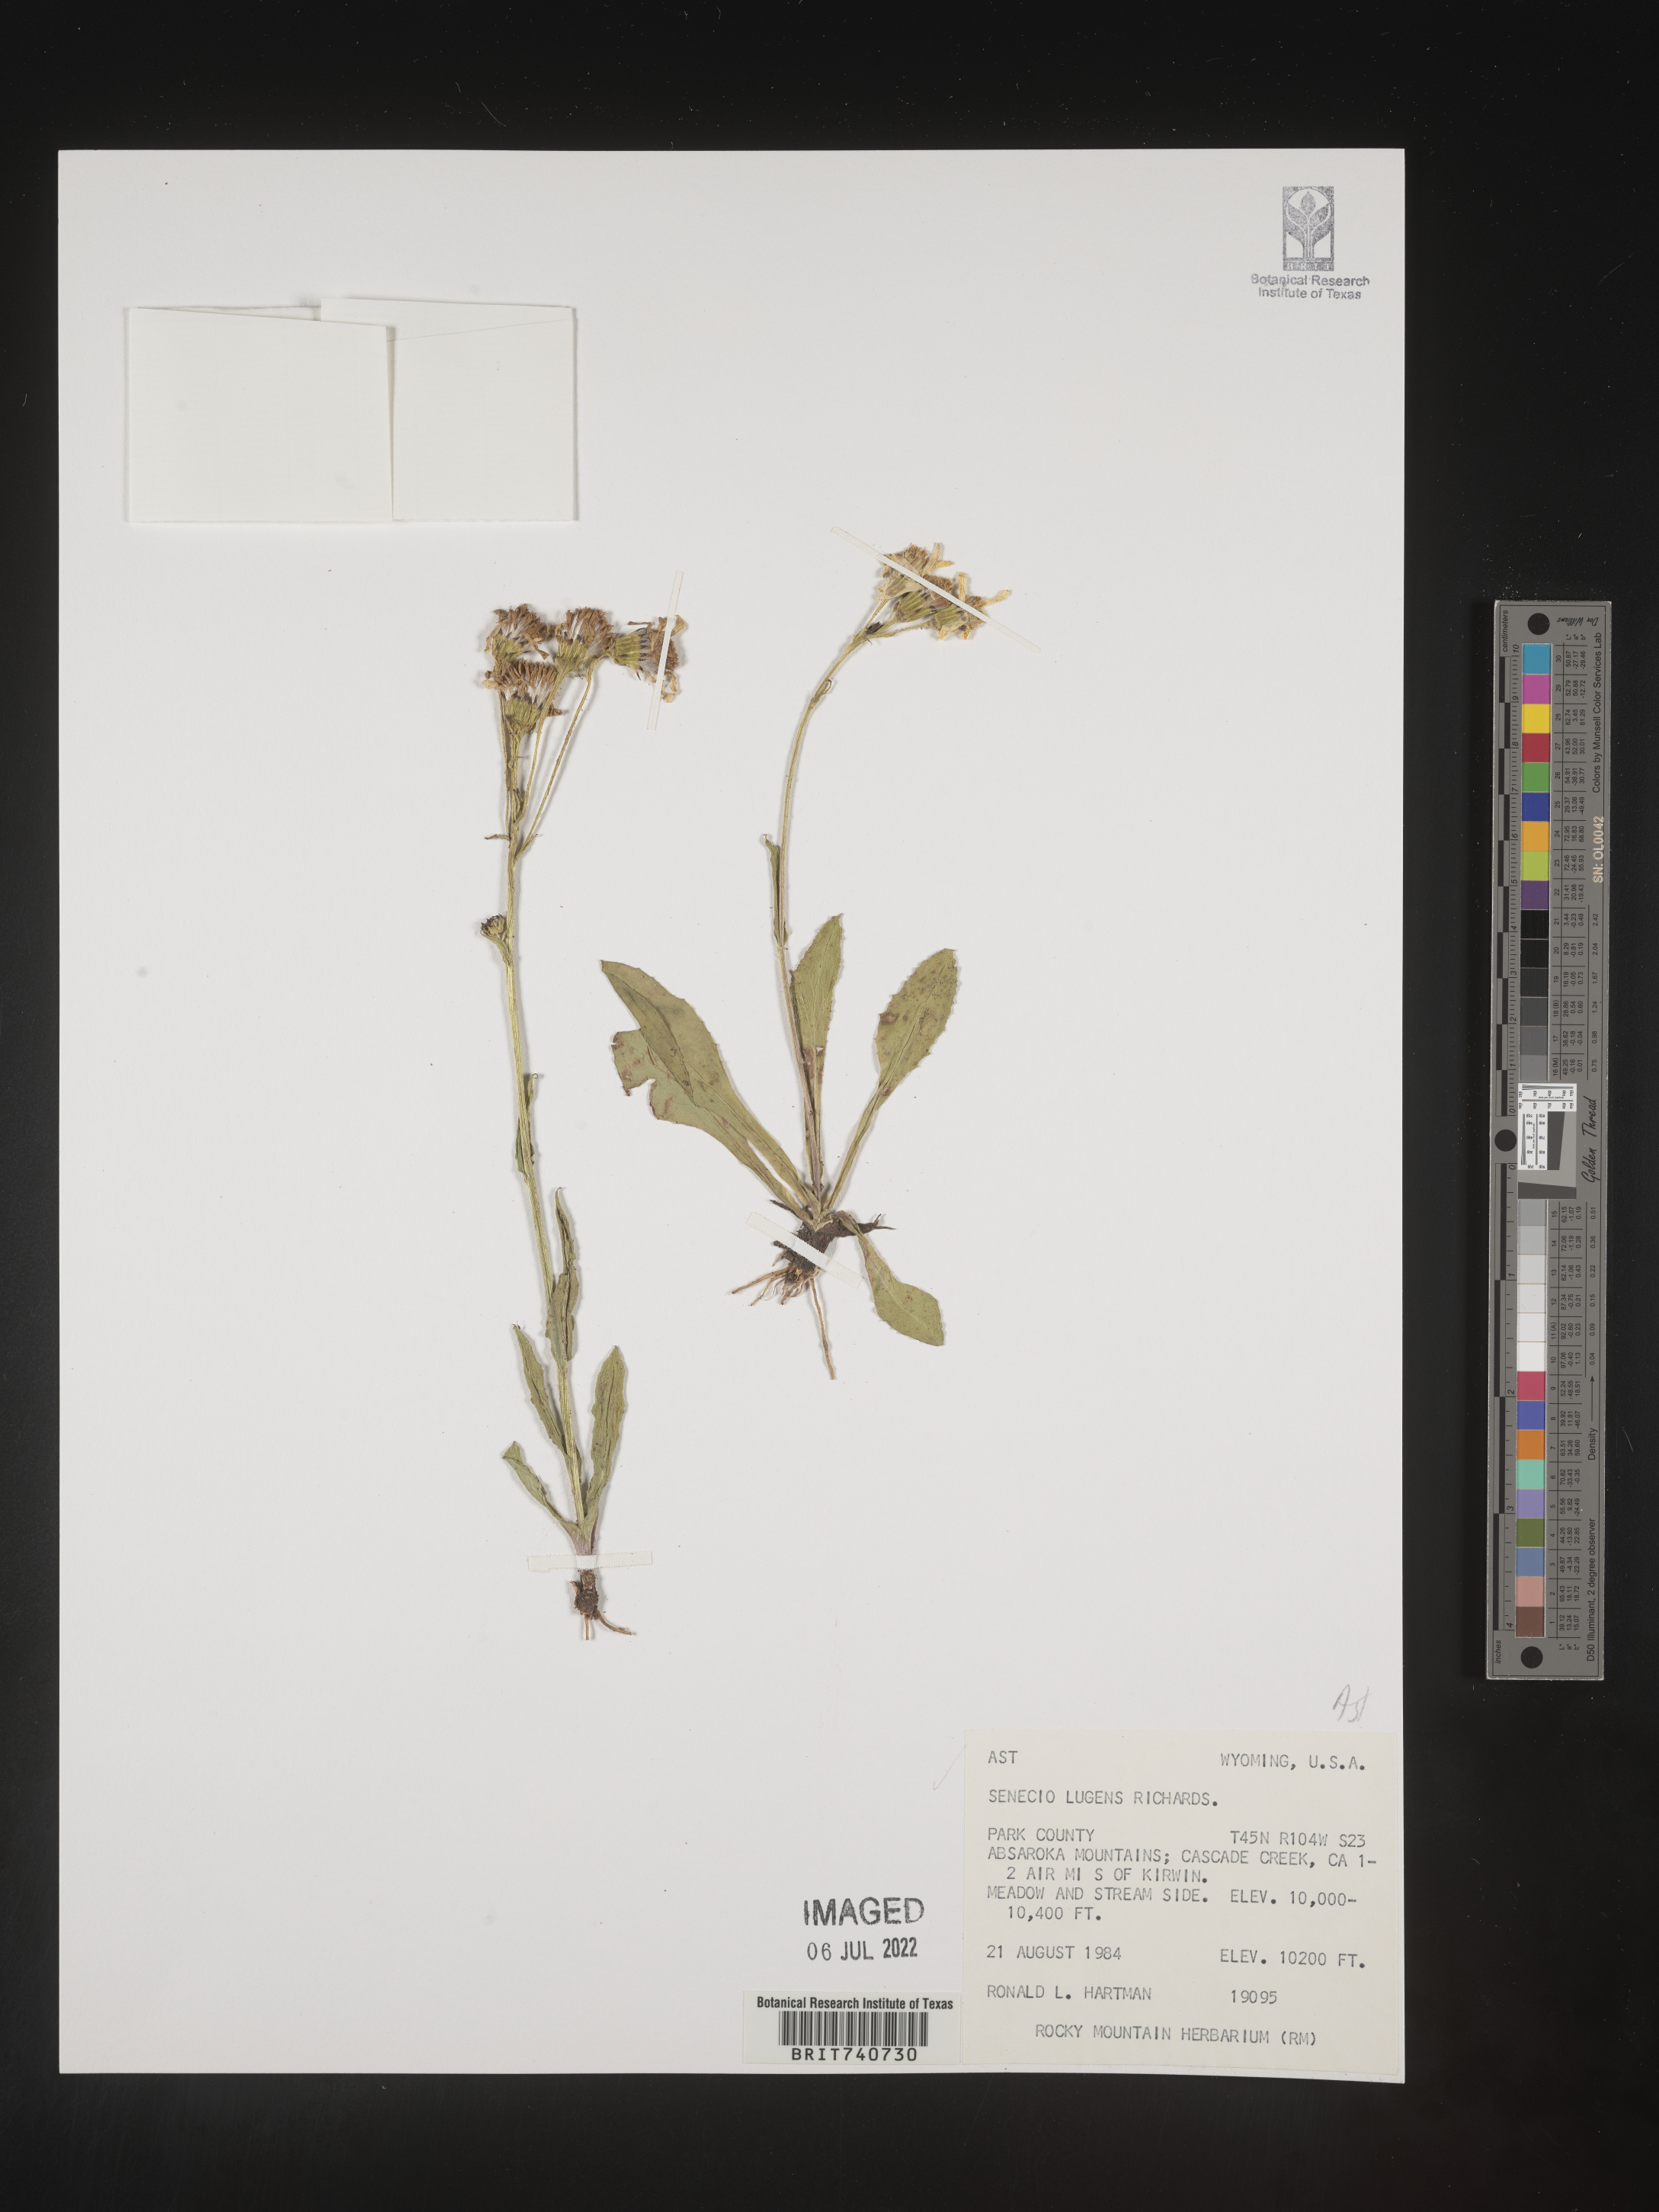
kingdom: Plantae
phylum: Tracheophyta
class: Magnoliopsida
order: Asterales
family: Asteraceae
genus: Senecio
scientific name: Senecio lugens
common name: Black-tip groundsel
